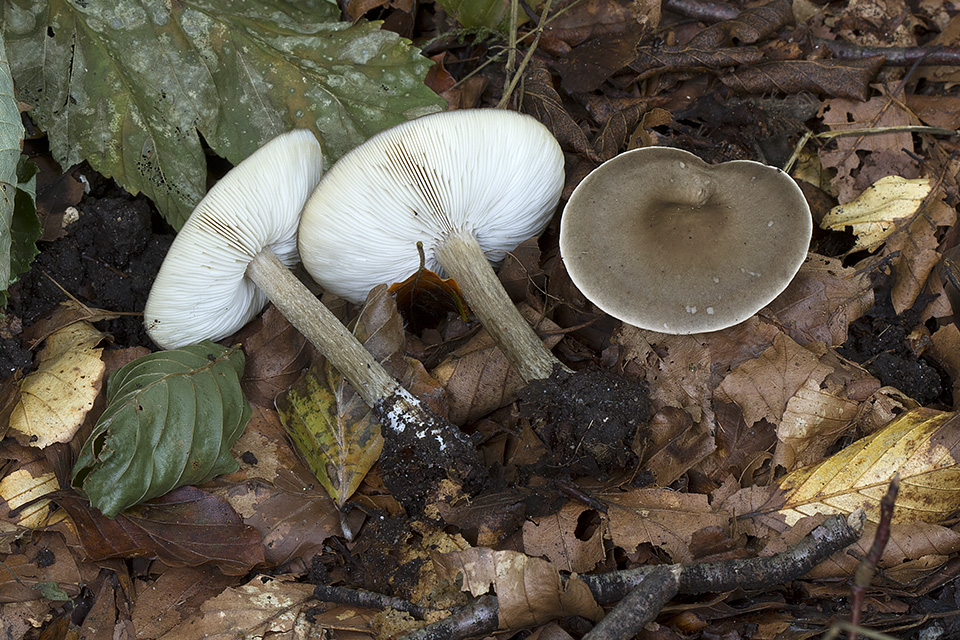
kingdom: Fungi
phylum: Basidiomycota
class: Agaricomycetes
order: Agaricales
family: Tricholomataceae
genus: Melanoleuca
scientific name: Melanoleuca polioleuca
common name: hvidbladet munkehat
